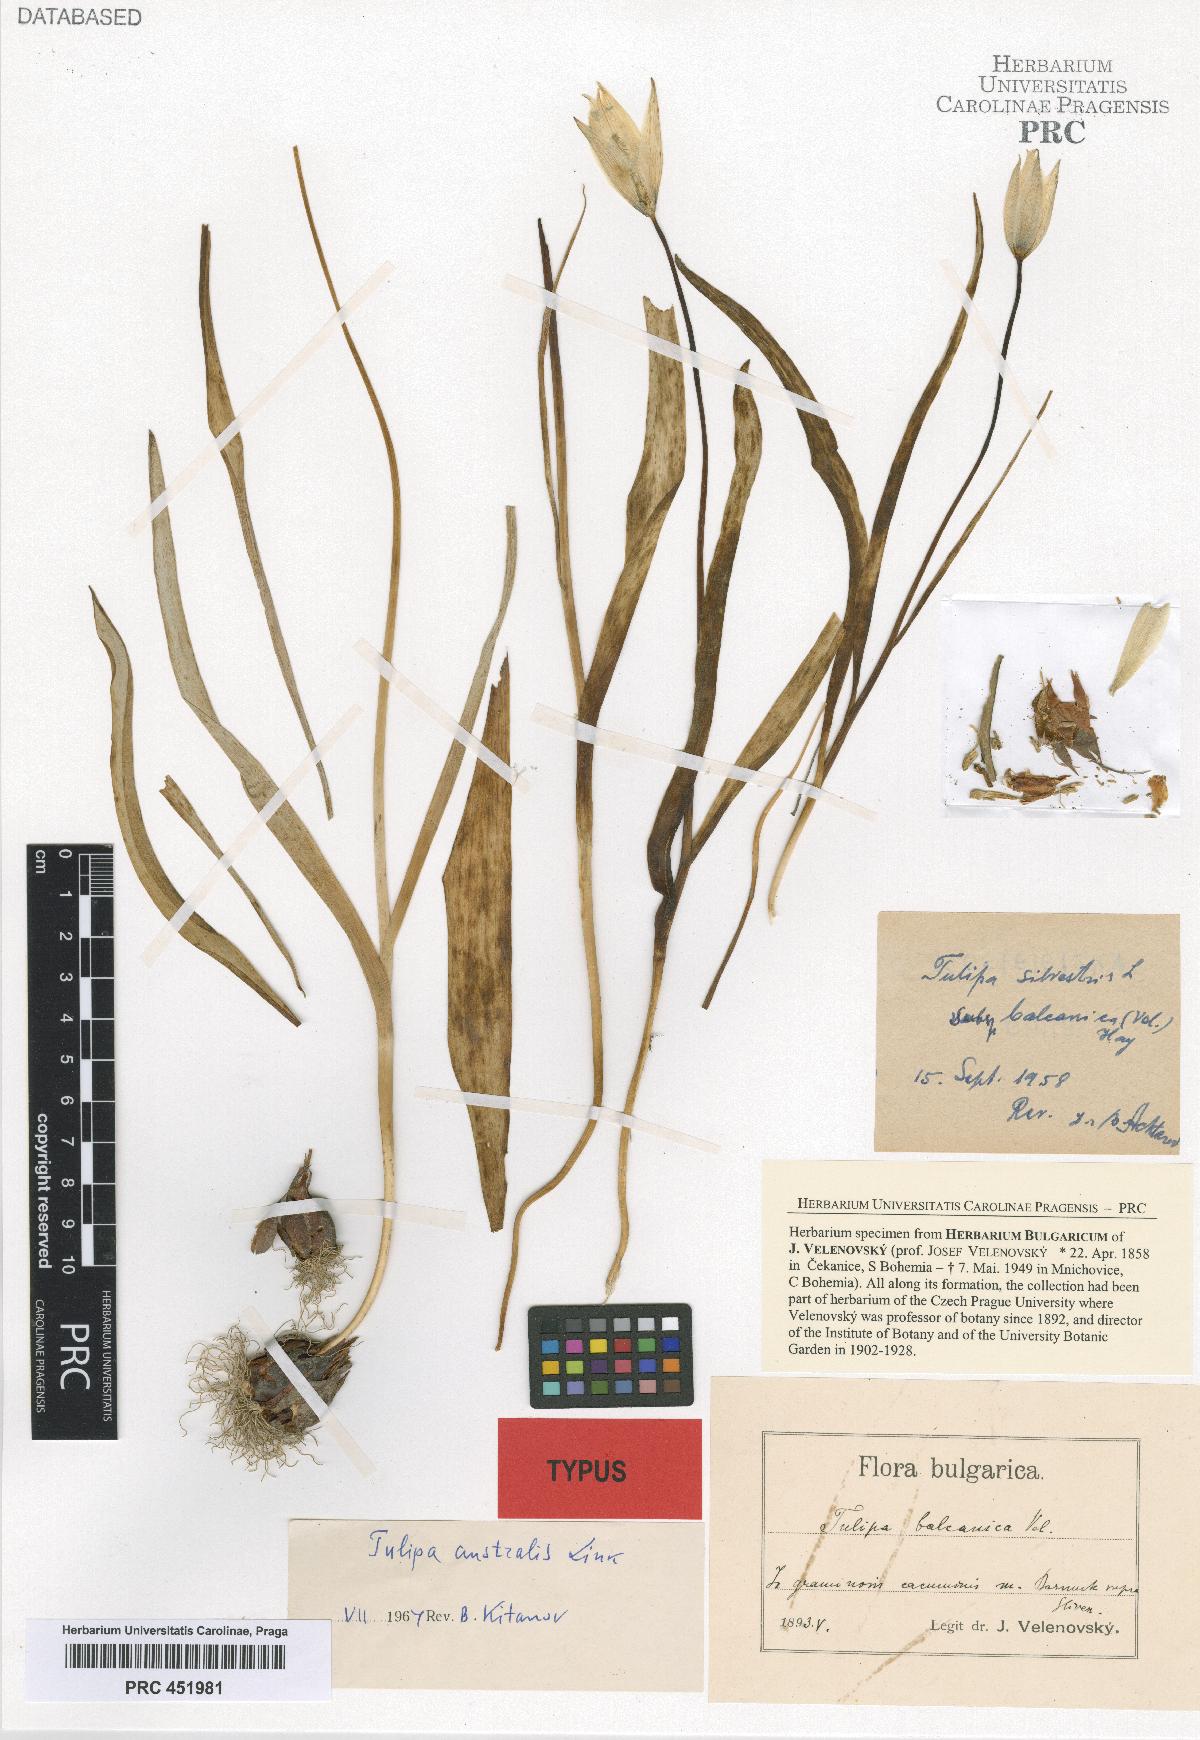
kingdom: Plantae
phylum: Tracheophyta
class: Liliopsida
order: Liliales
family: Liliaceae
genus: Tulipa
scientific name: Tulipa sylvestris
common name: Wild tulip
